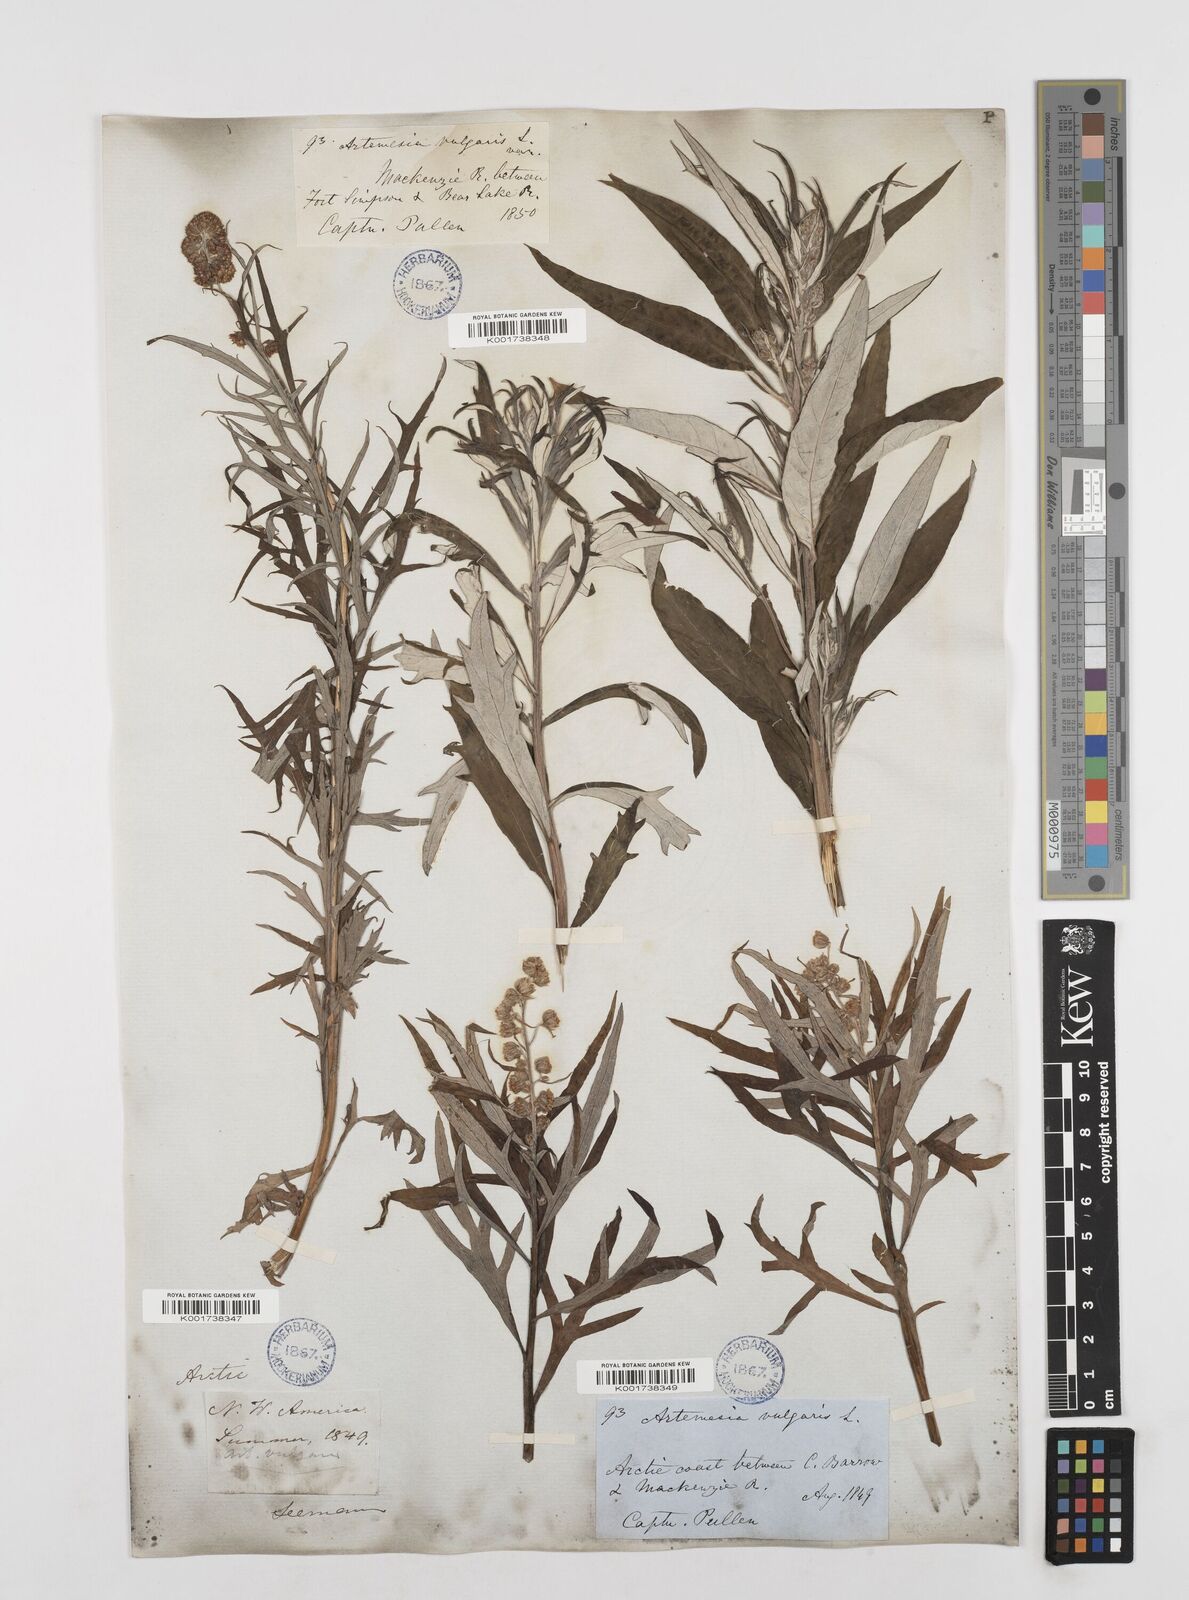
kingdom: Plantae
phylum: Tracheophyta
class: Magnoliopsida
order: Asterales
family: Asteraceae
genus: Artemisia
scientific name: Artemisia tilesii
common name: Aleutian mugwort
